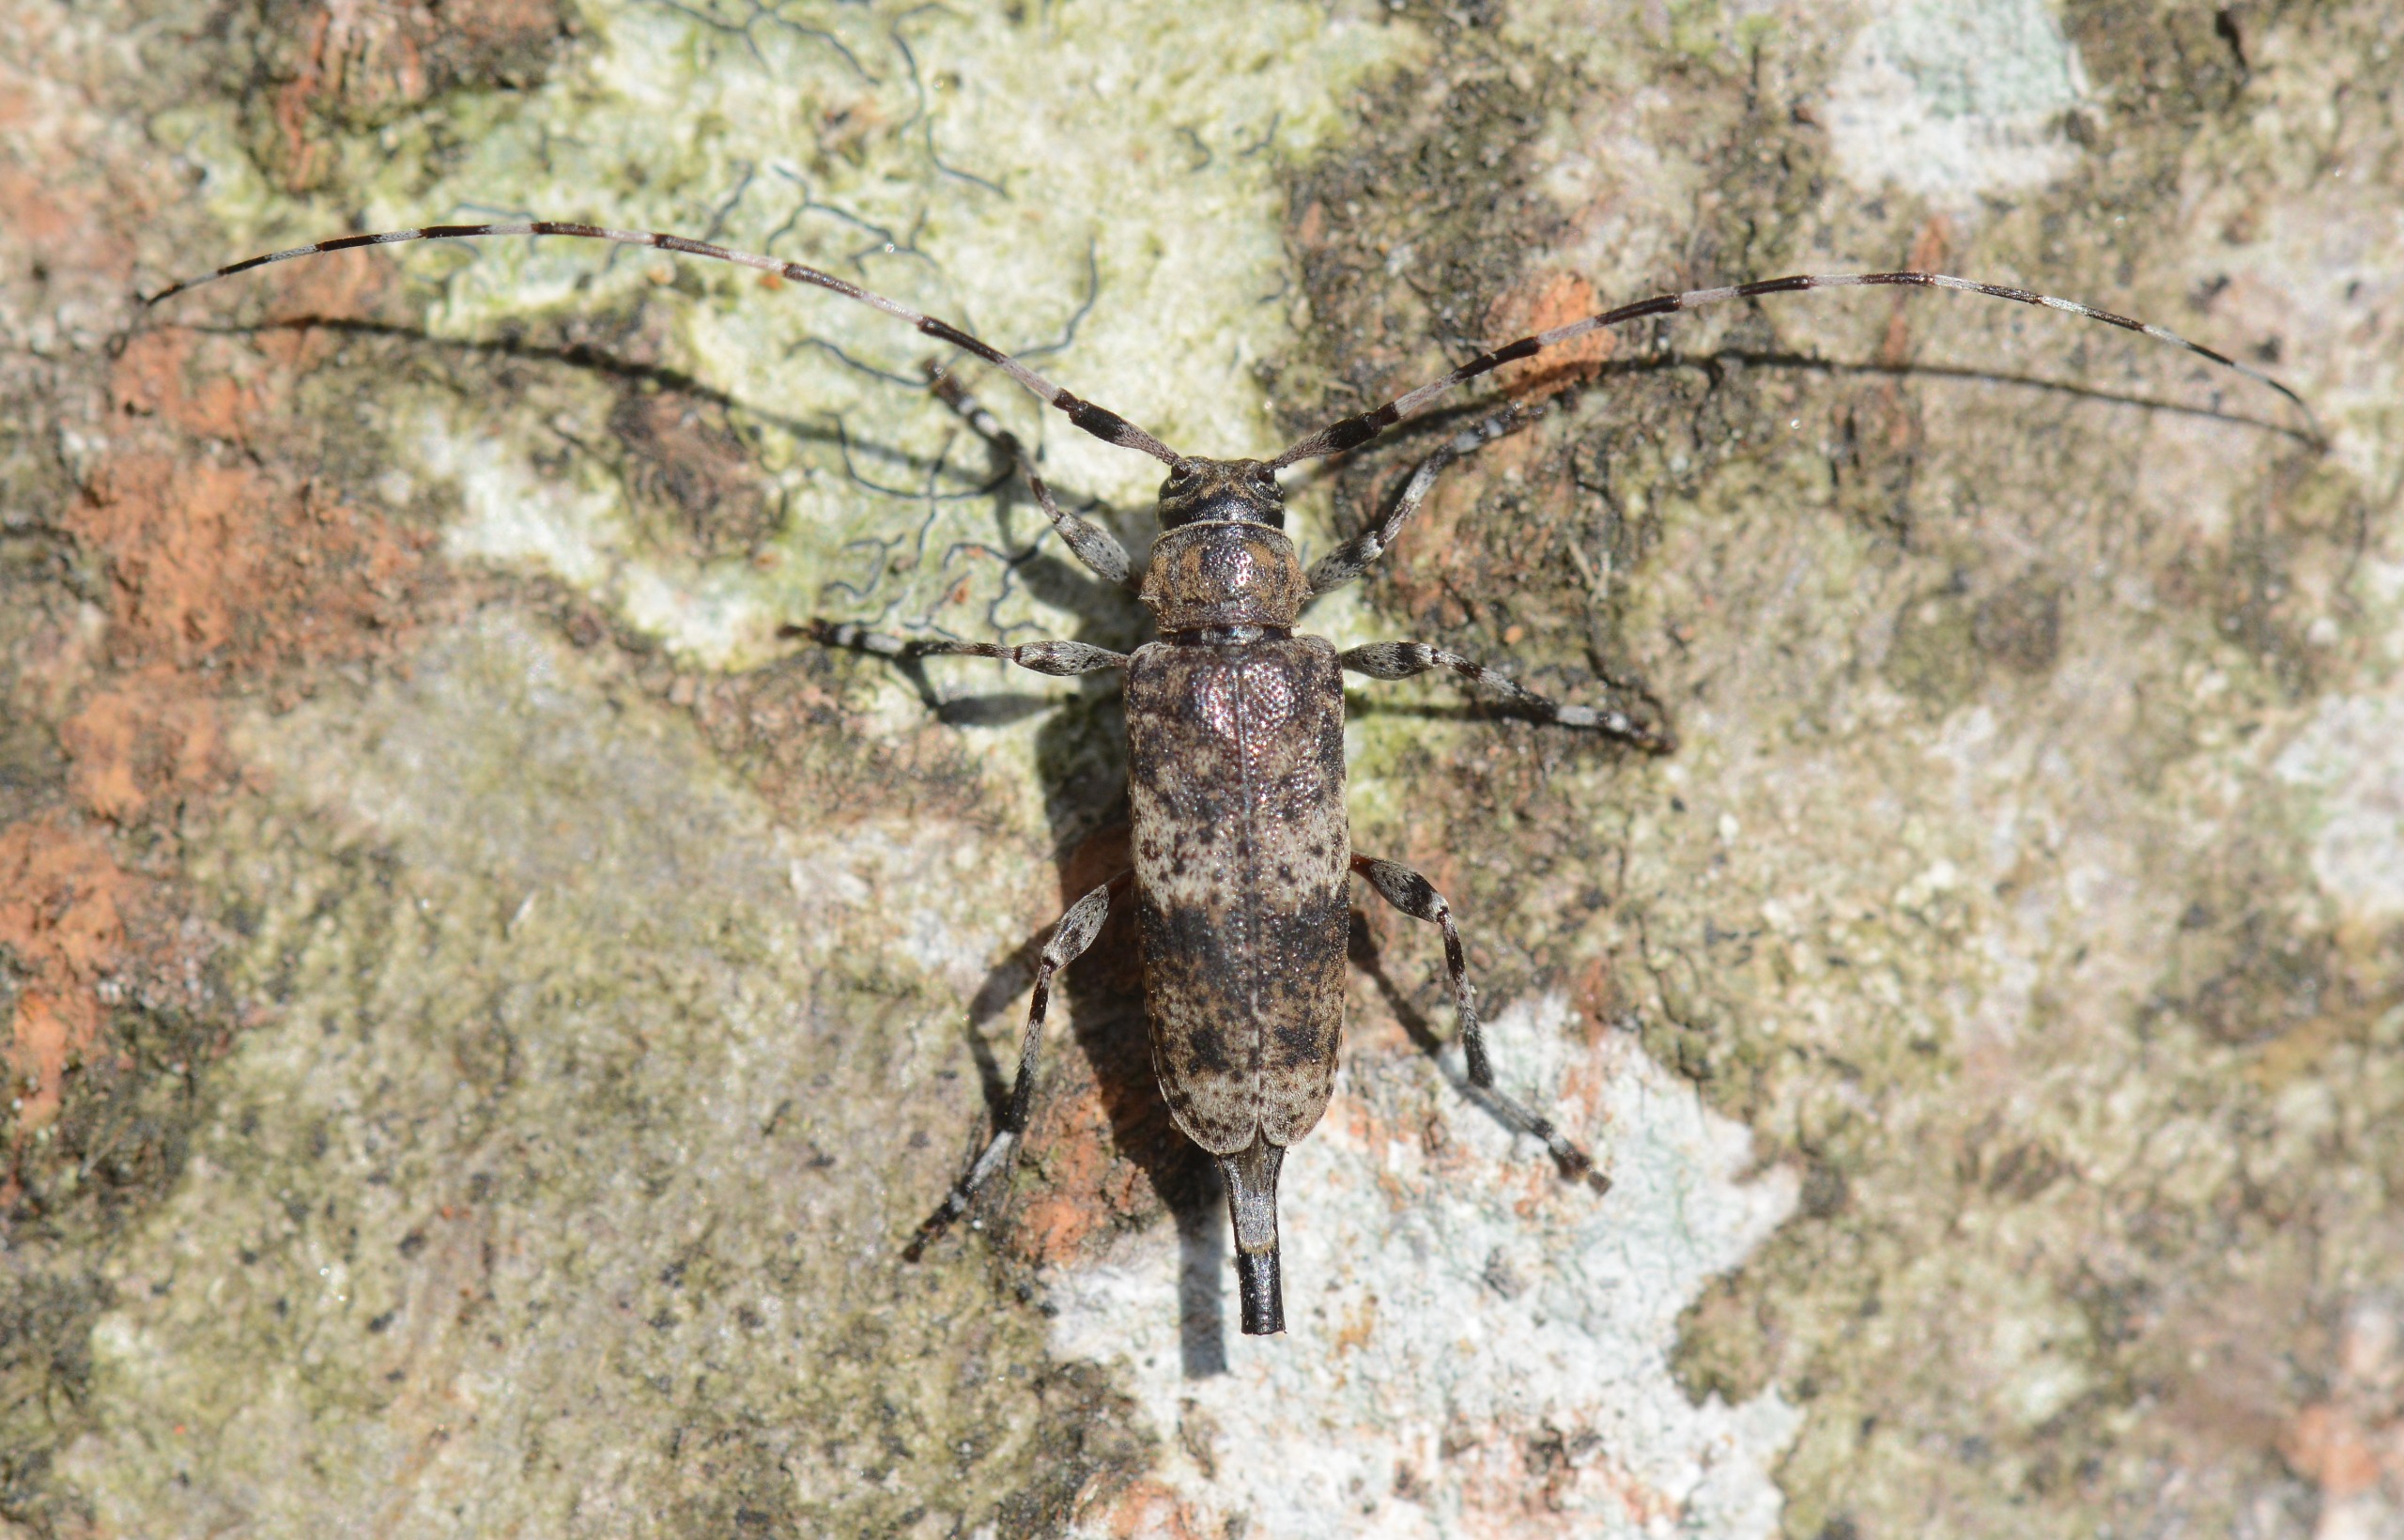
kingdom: Animalia
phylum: Arthropoda
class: Insecta
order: Coleoptera
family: Cerambycidae
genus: Acanthocinus
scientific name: Acanthocinus griseus
